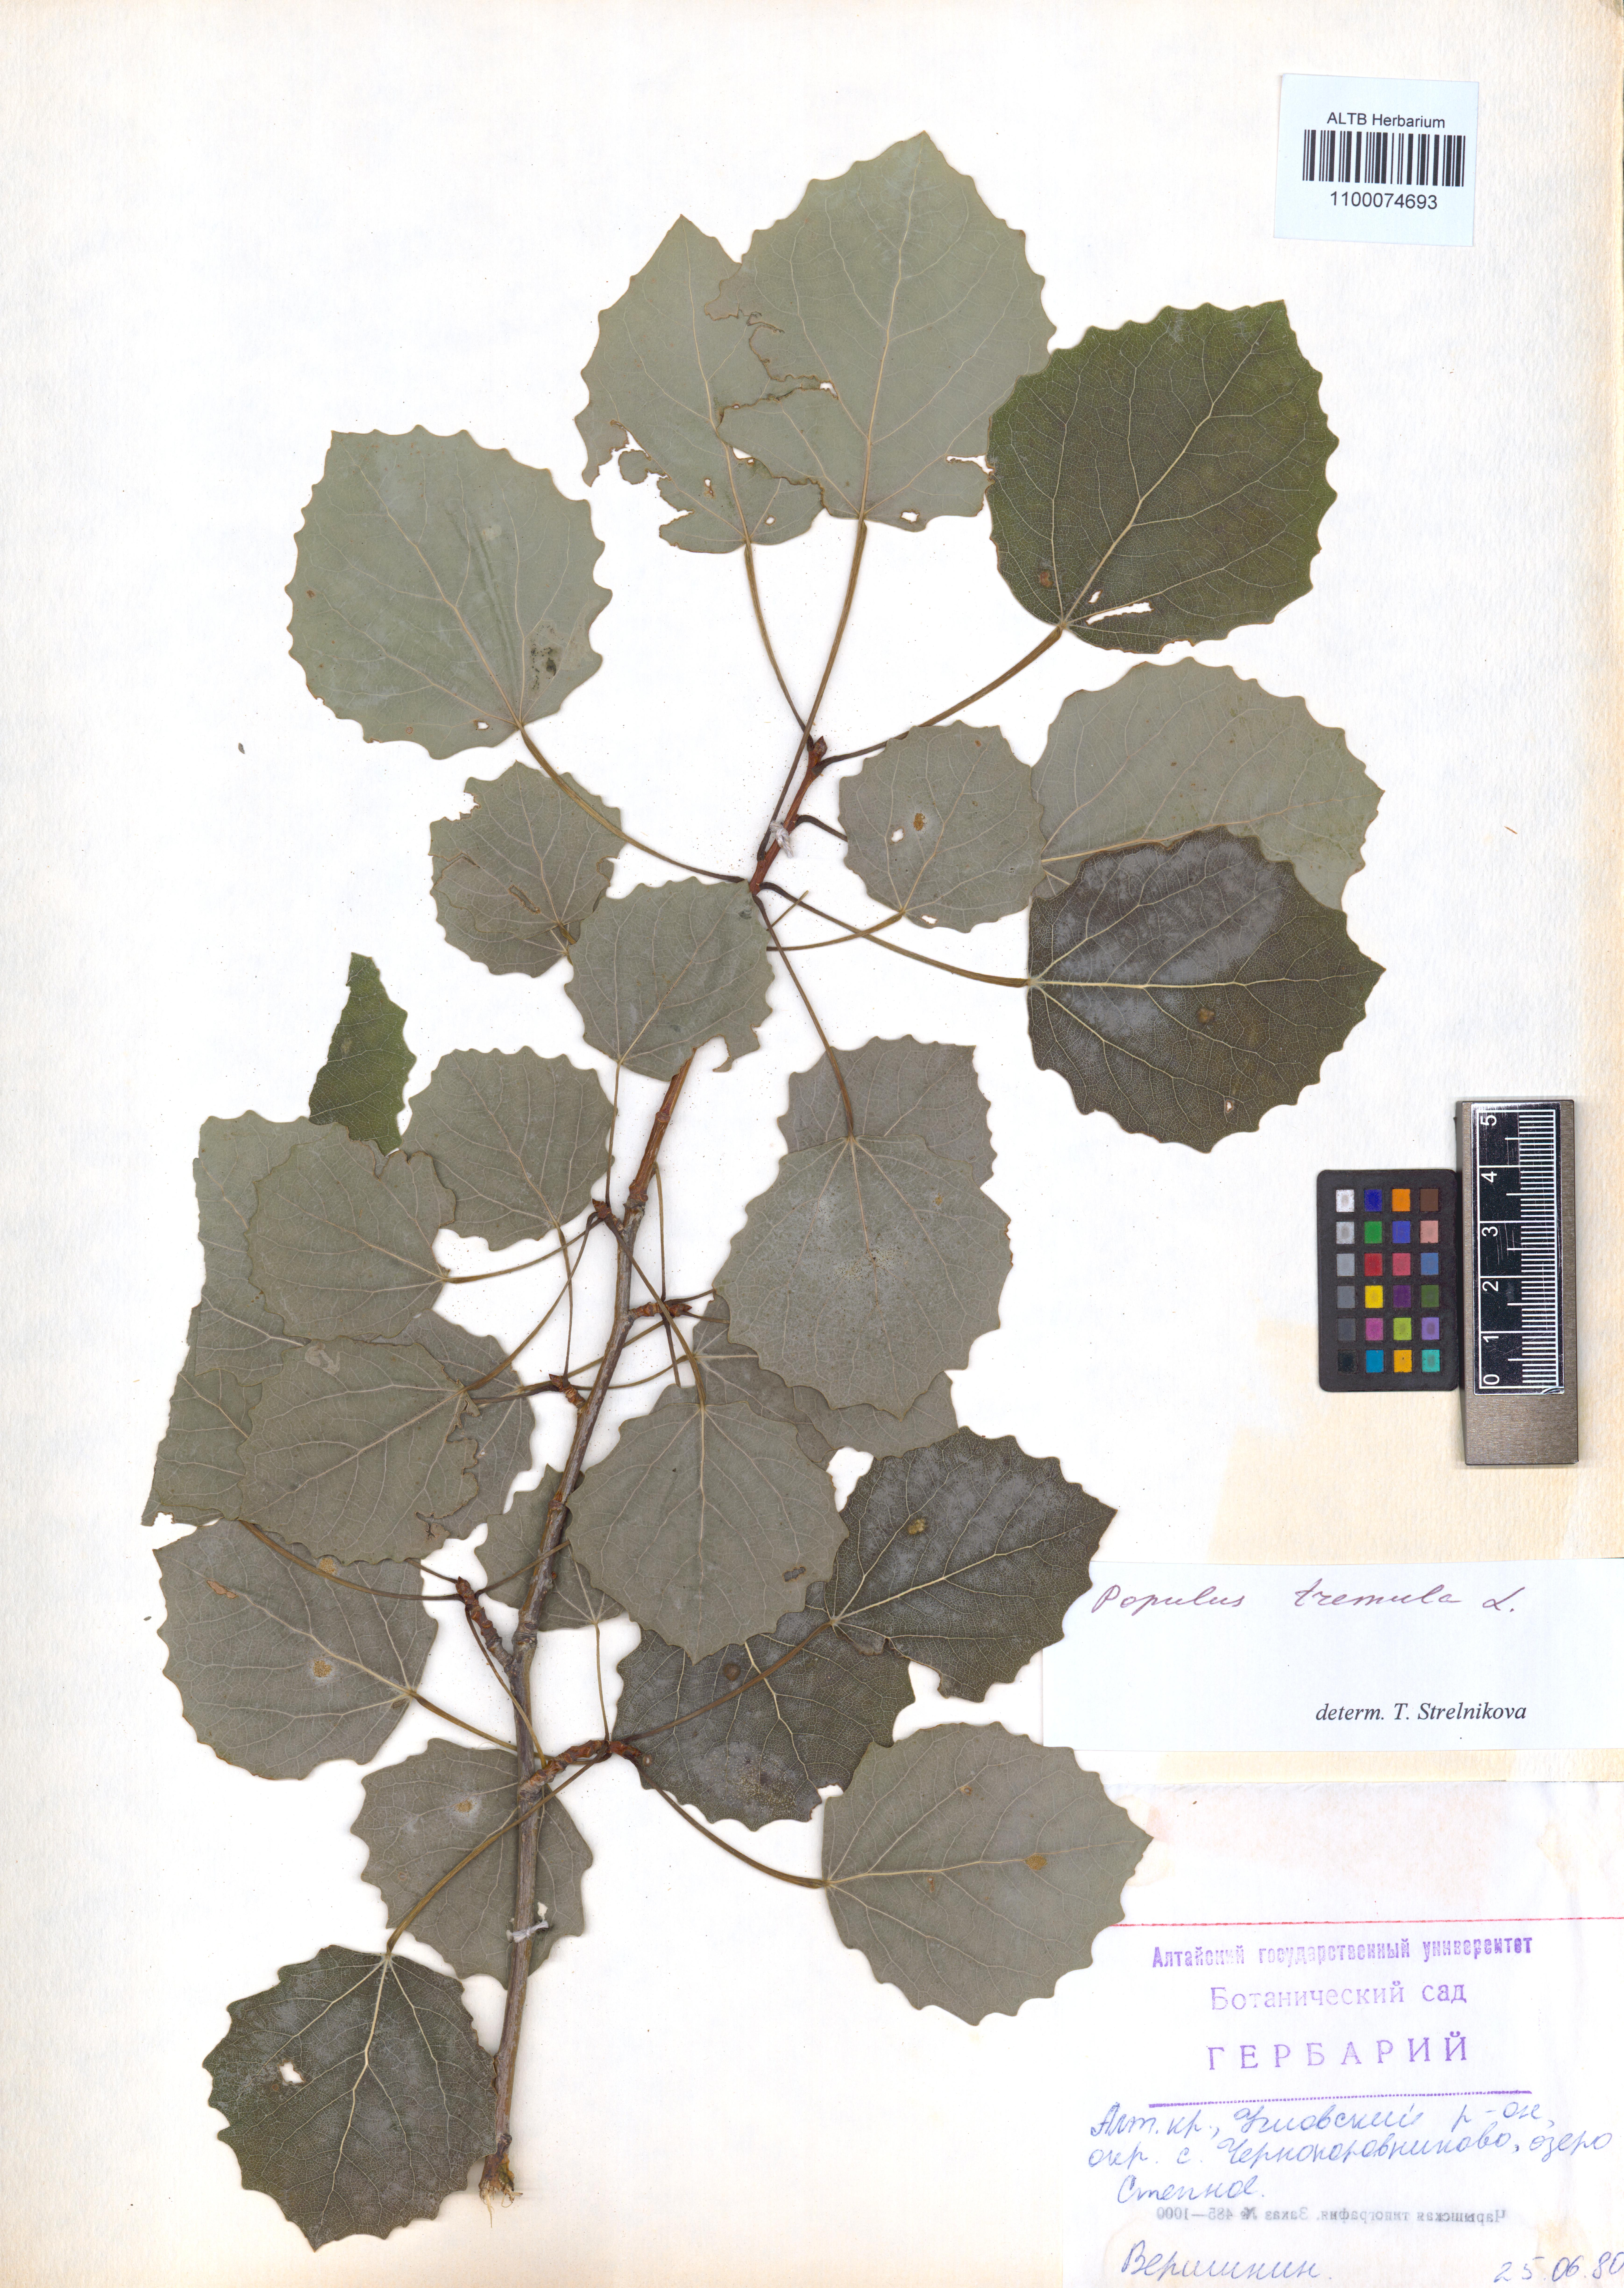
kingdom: Plantae
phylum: Tracheophyta
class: Magnoliopsida
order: Malpighiales
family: Salicaceae
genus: Populus
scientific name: Populus tremula
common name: European aspen
